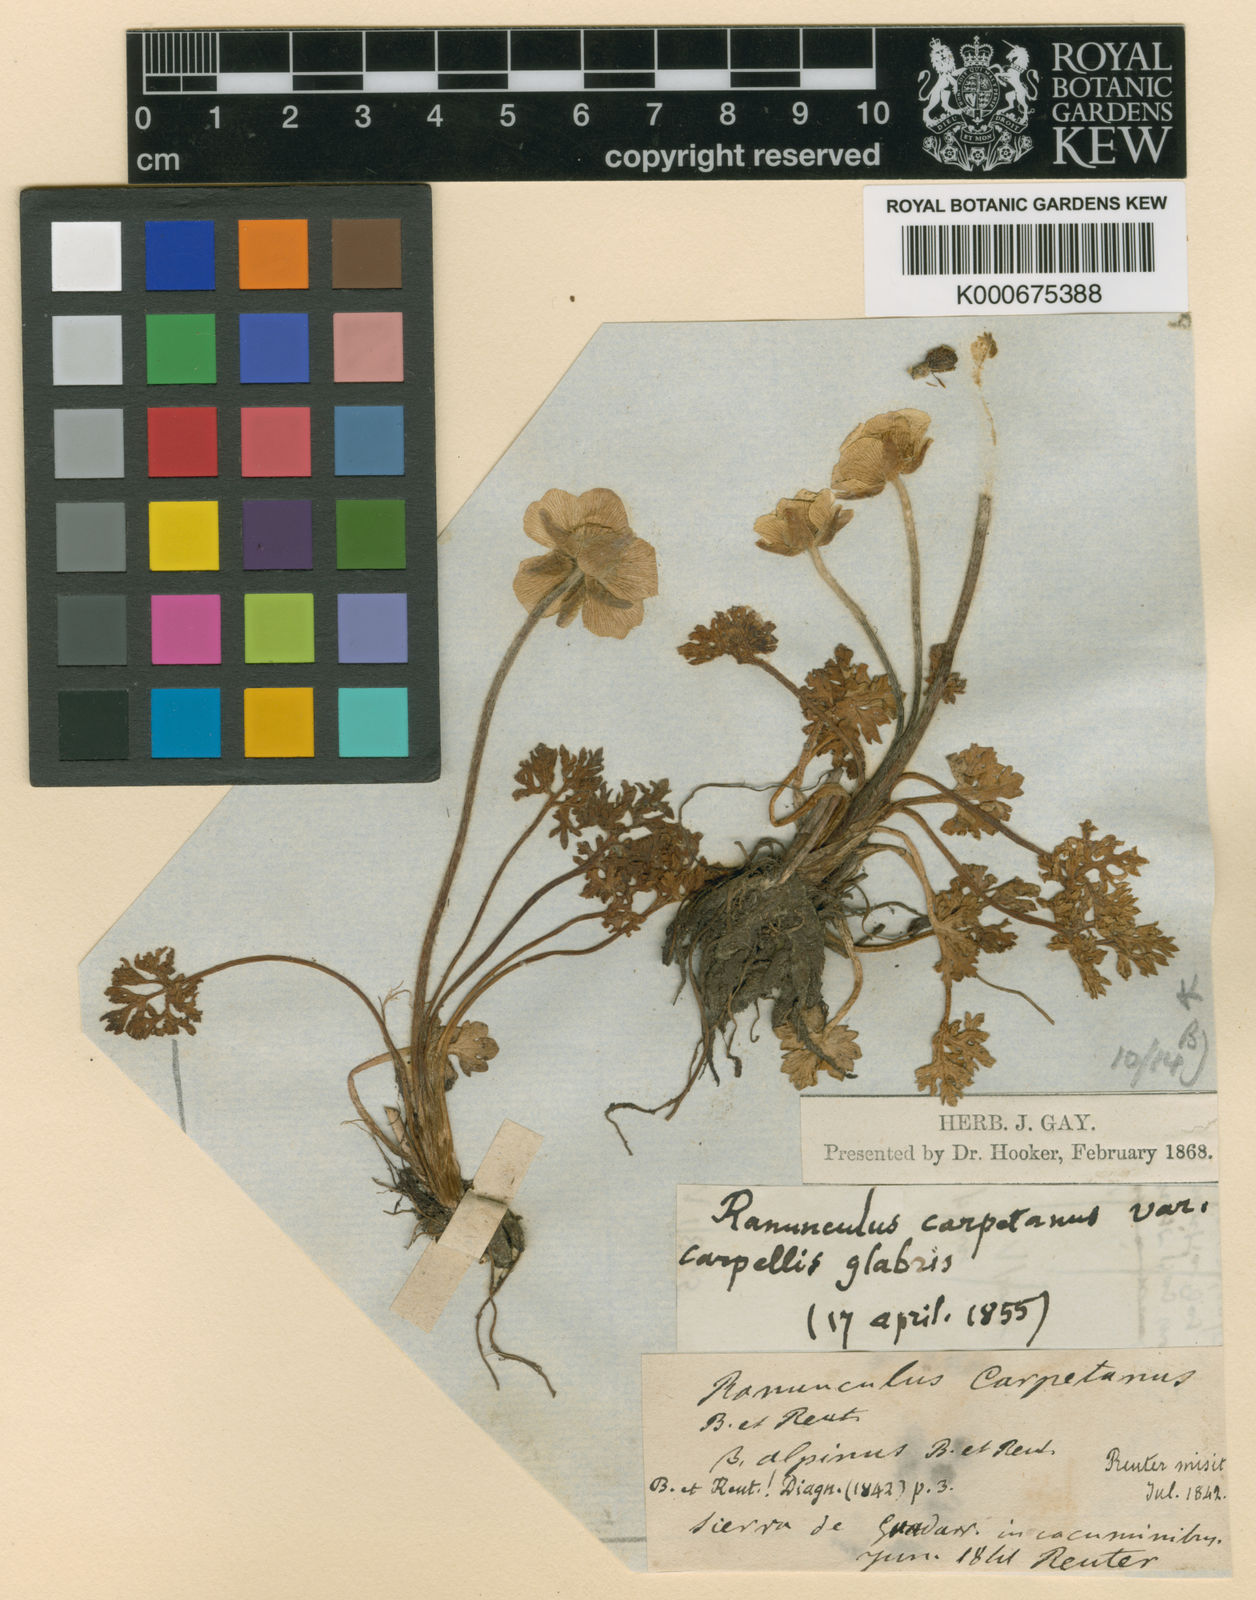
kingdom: Plantae
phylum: Tracheophyta
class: Magnoliopsida
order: Ranunculales
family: Ranunculaceae
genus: Ranunculus
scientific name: Ranunculus gregarius
